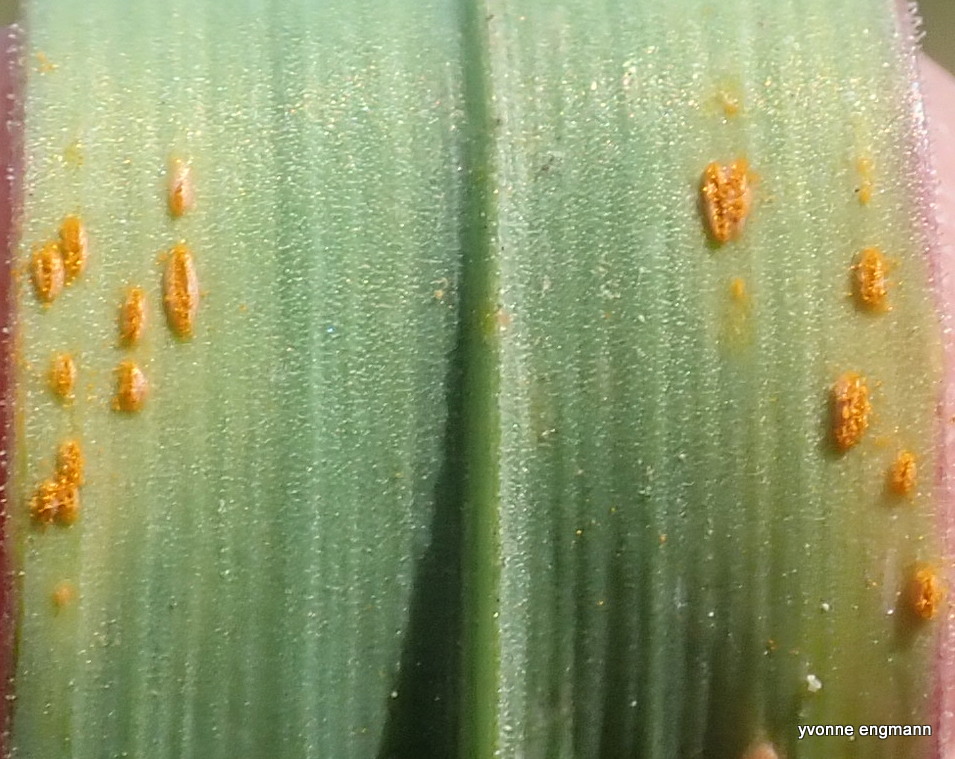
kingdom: Fungi
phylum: Basidiomycota
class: Pucciniomycetes
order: Pucciniales
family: Pucciniaceae
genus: Puccinia
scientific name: Puccinia porri
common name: Allium rust
